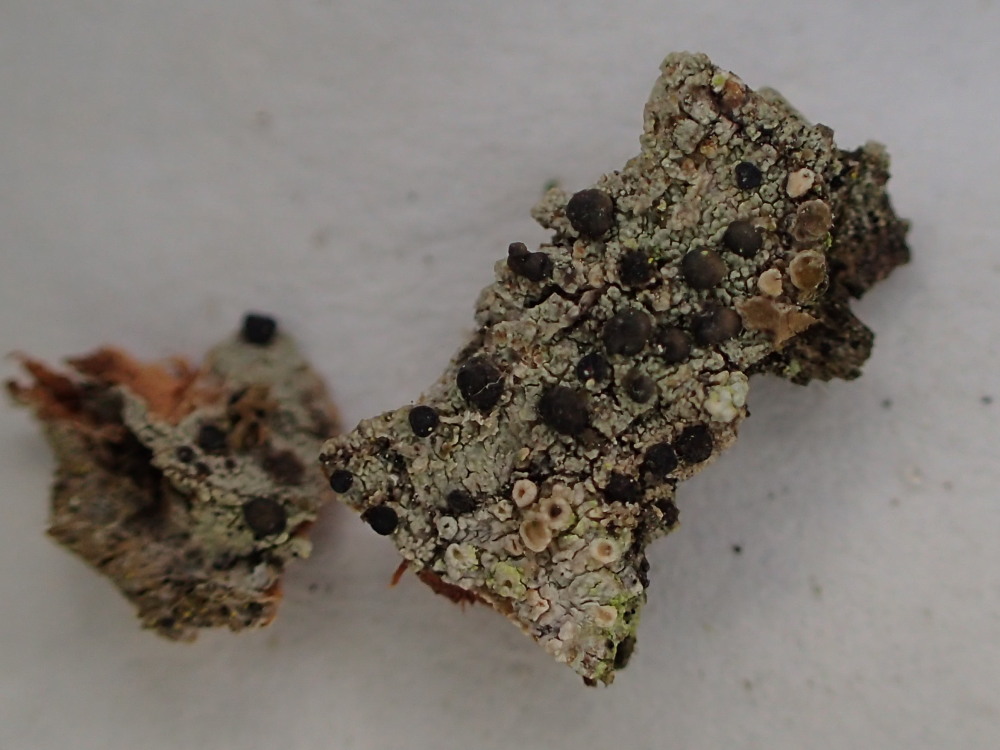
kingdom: Fungi
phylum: Ascomycota
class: Lecanoromycetes
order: Lecanorales
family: Lecanoraceae
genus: Lecidella
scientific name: Lecidella elaeochroma
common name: grågrøn skivelav
